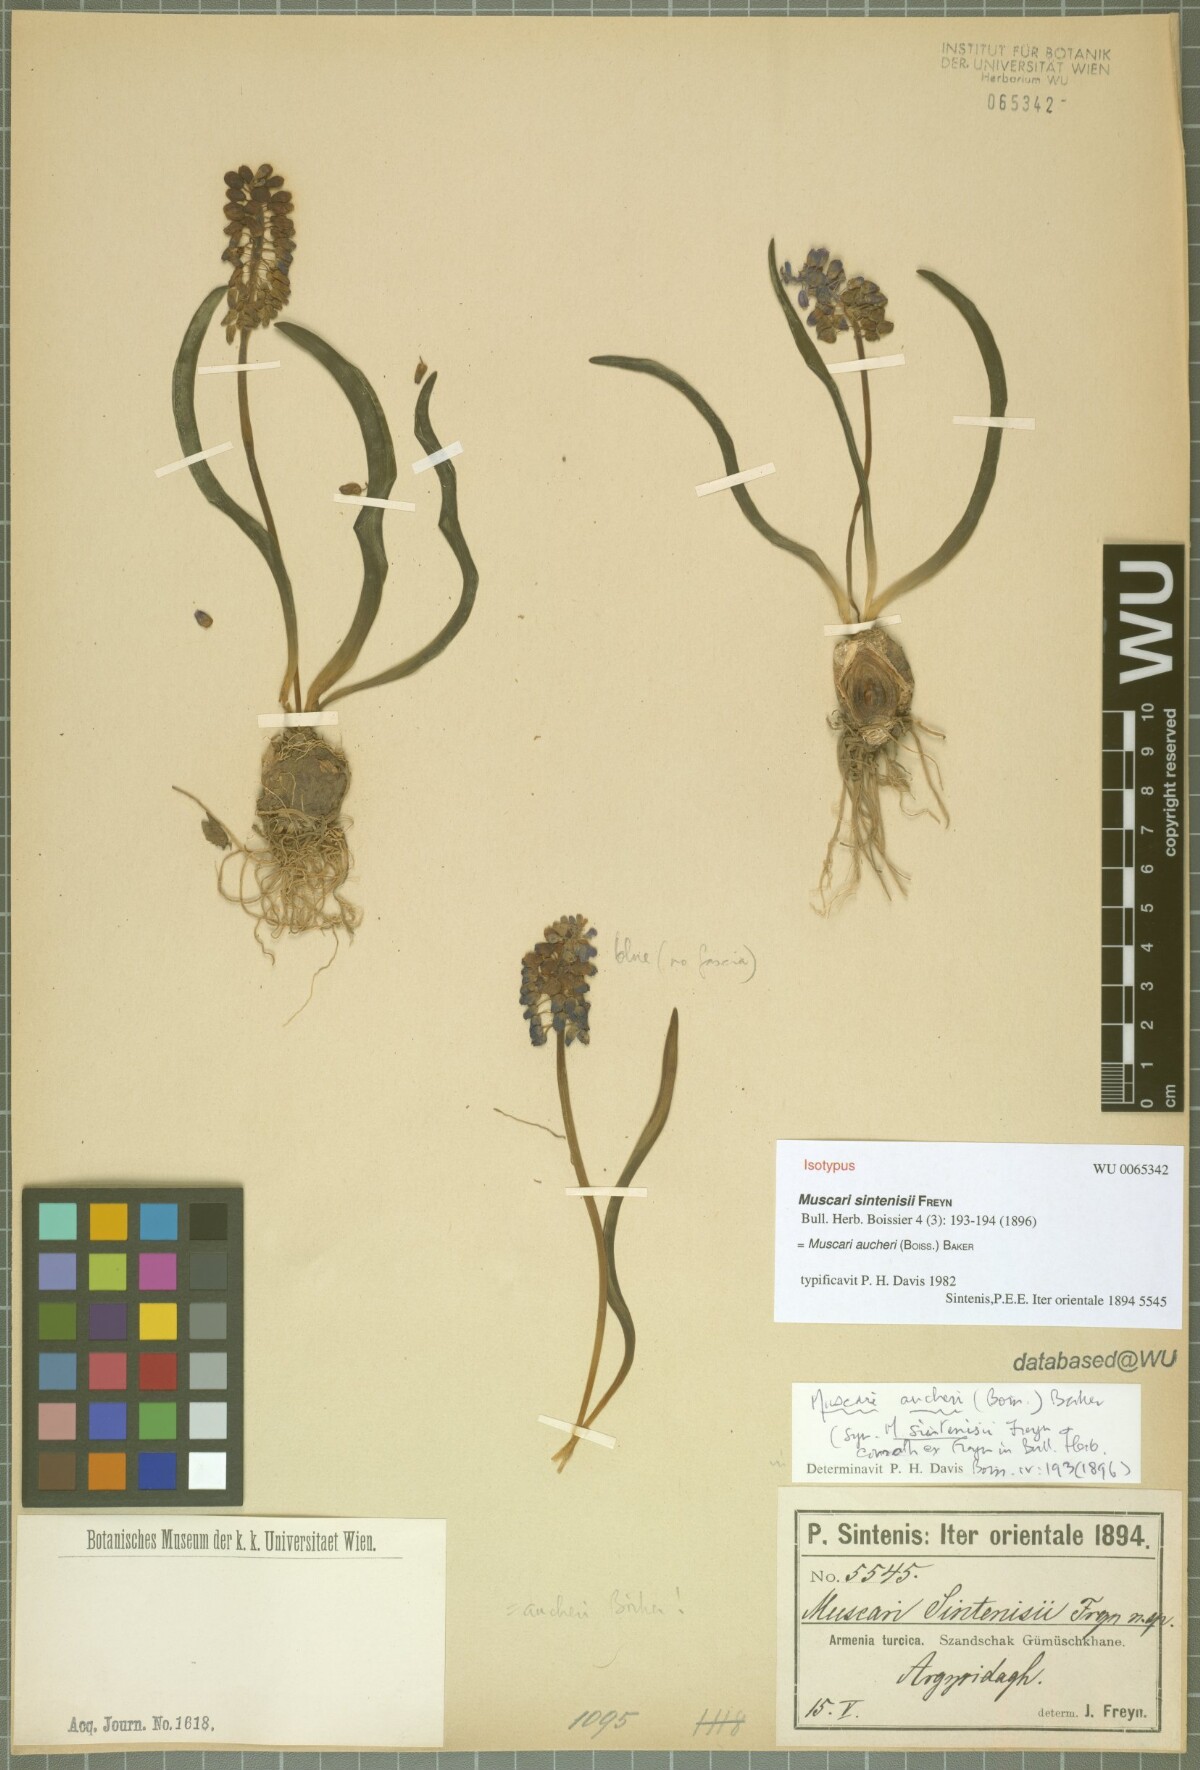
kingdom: Plantae
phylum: Tracheophyta
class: Liliopsida
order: Asparagales
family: Asparagaceae
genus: Muscari
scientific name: Muscari aucheri
